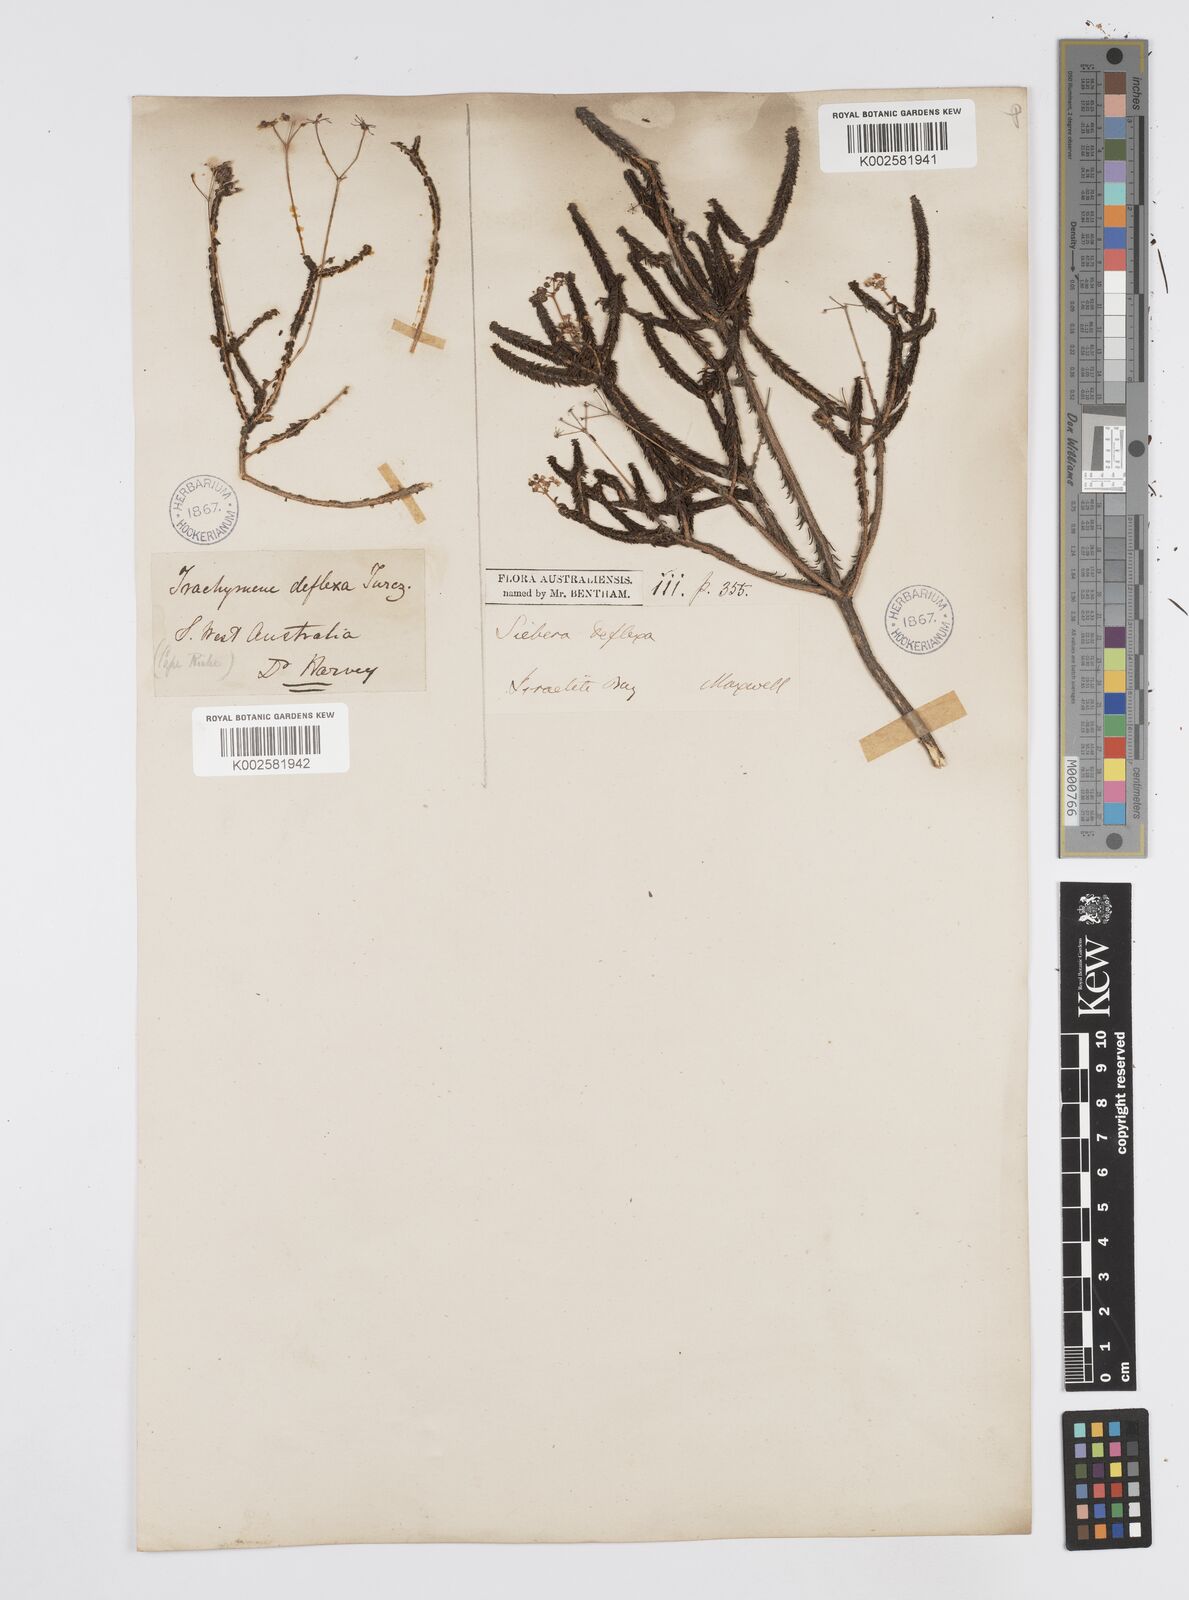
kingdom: Plantae
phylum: Tracheophyta
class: Magnoliopsida
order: Apiales
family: Apiaceae
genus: Platysace
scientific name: Platysace deflexa
